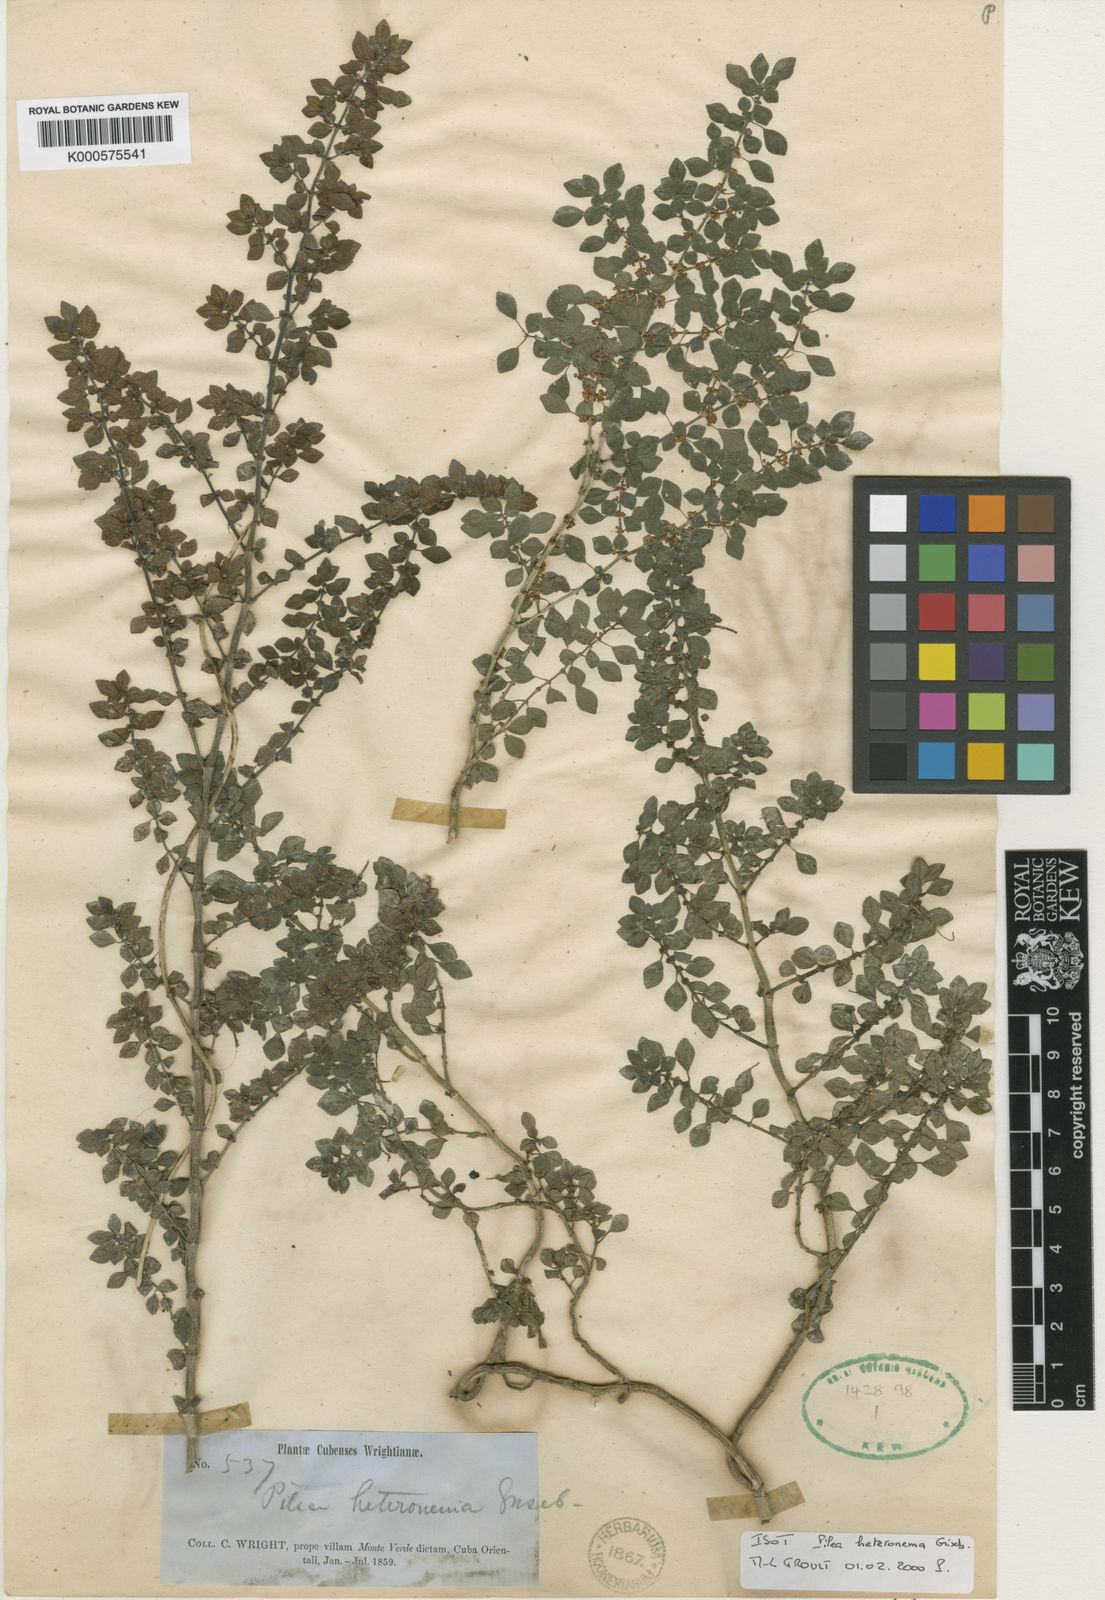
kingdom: Plantae
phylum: Tracheophyta
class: Magnoliopsida
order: Rosales
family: Urticaceae
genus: Pilea
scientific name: Pilea heteroneura
